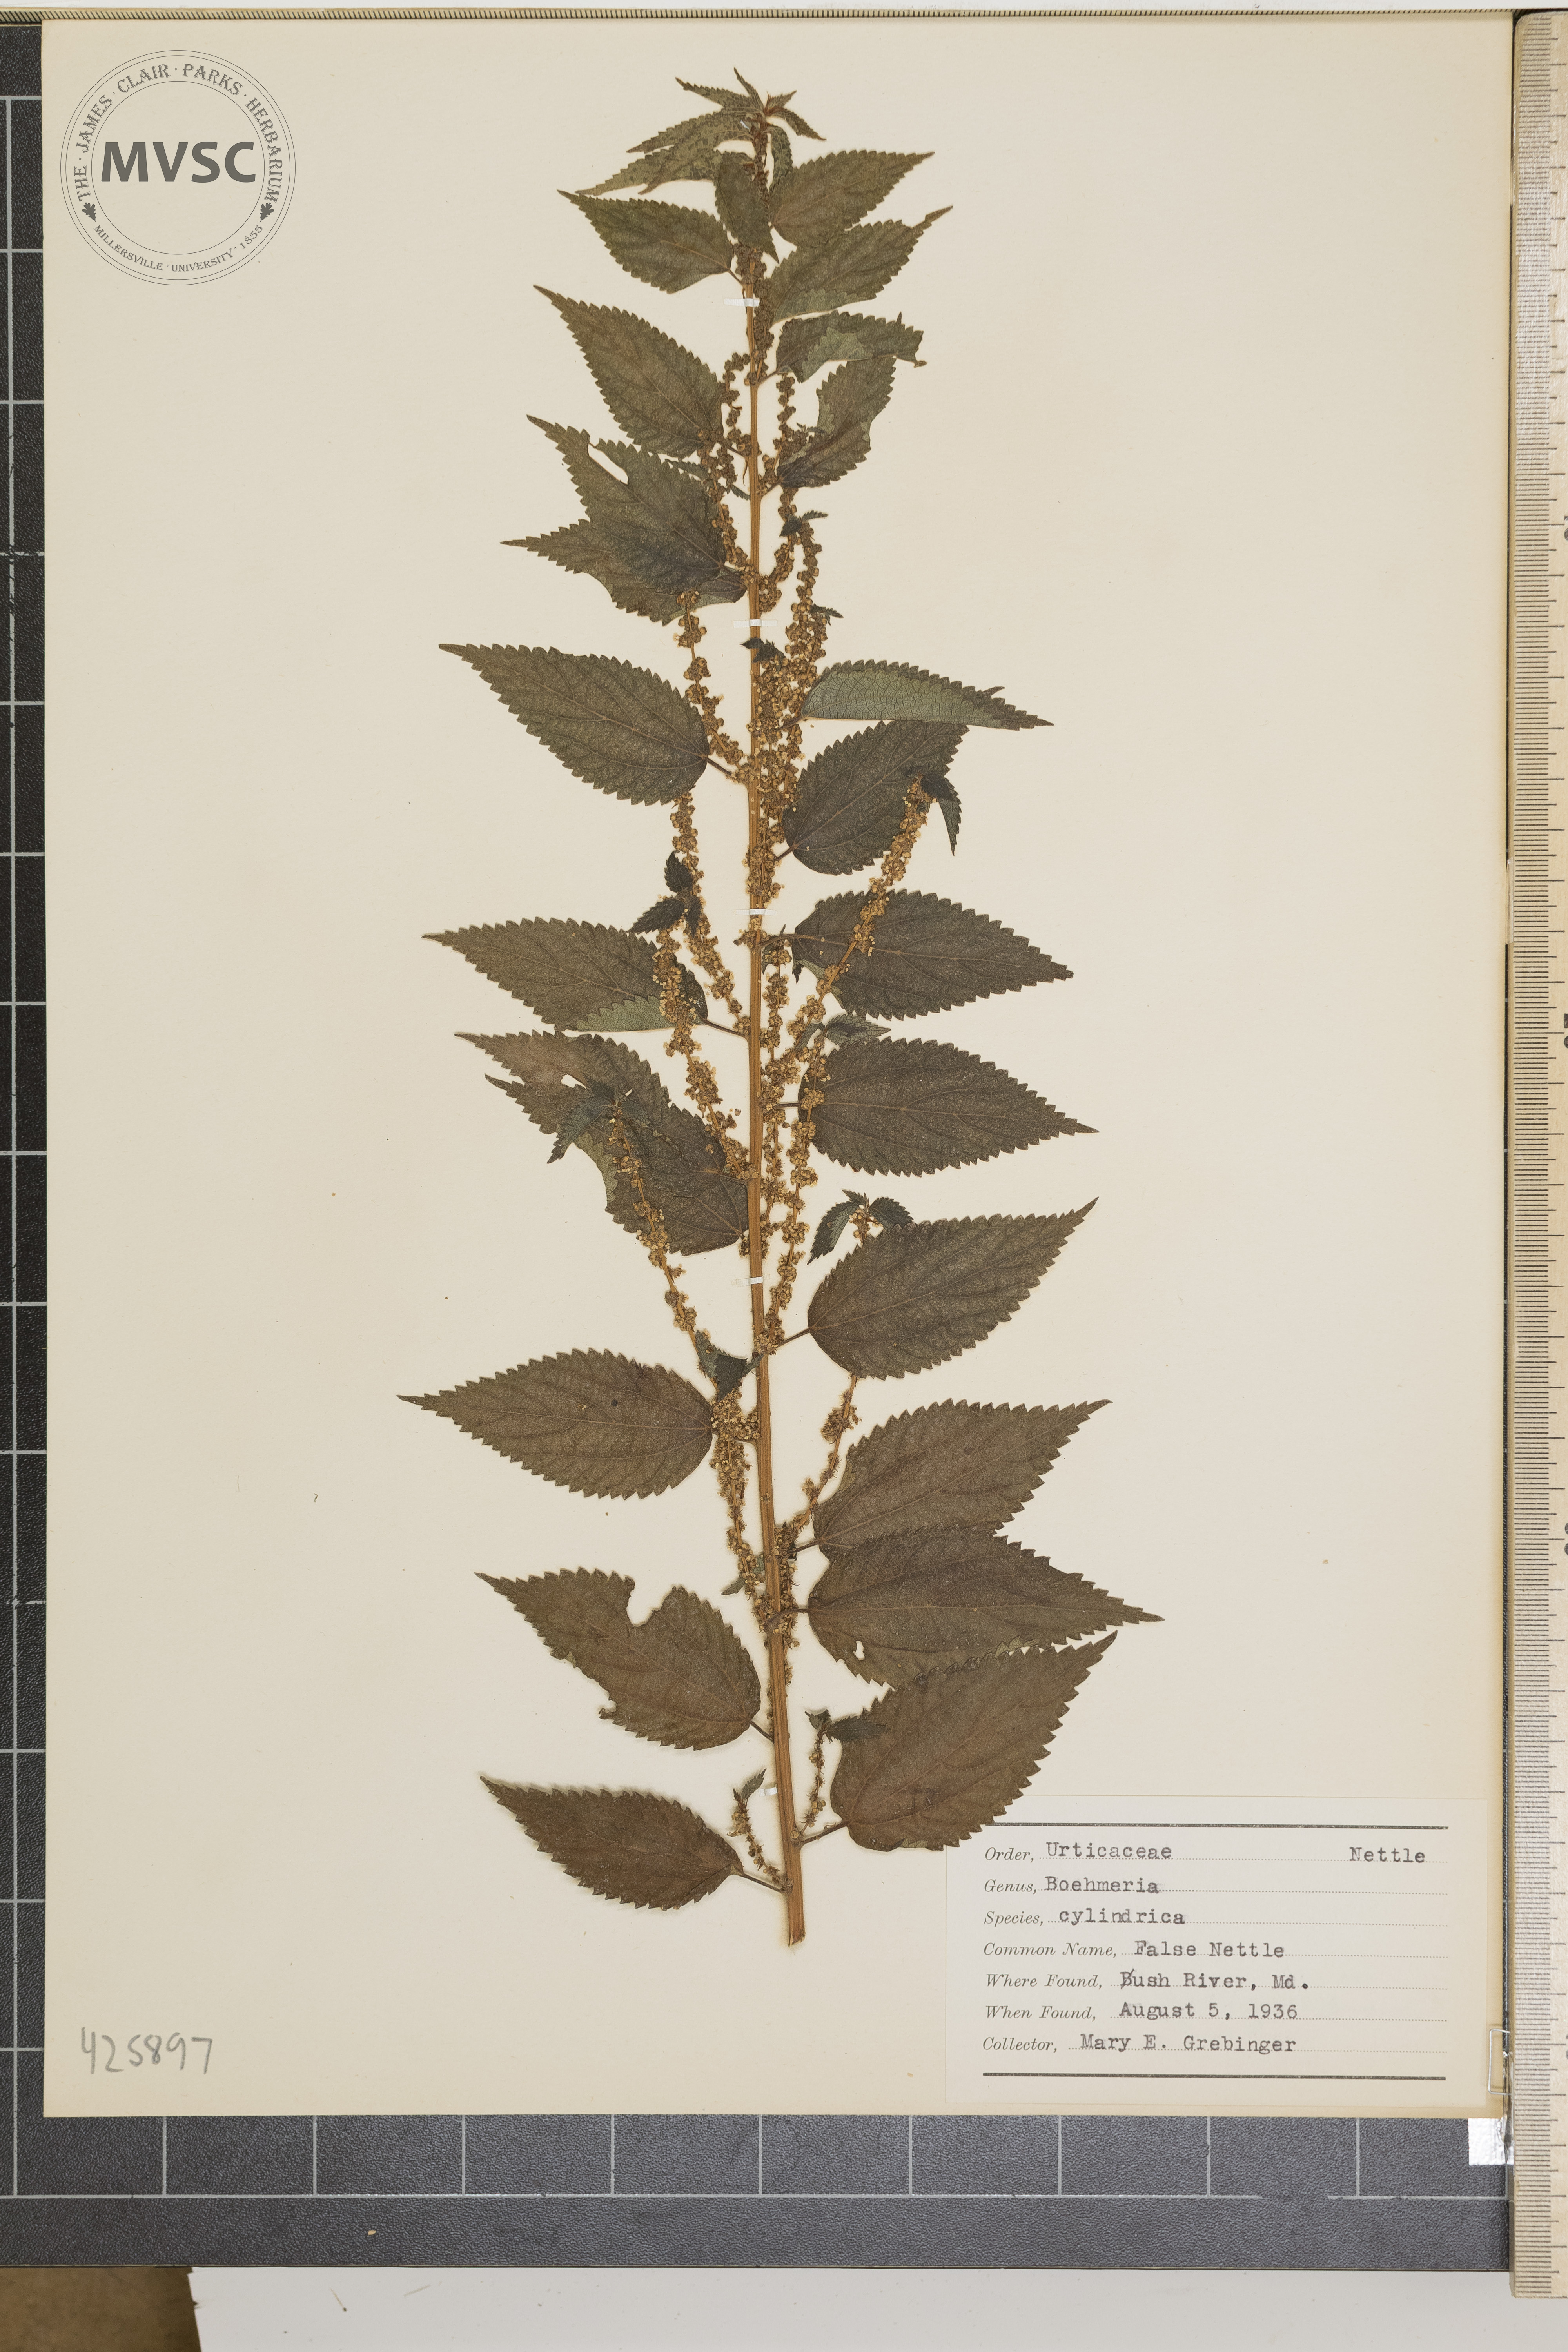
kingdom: Plantae
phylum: Tracheophyta
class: Magnoliopsida
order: Rosales
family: Urticaceae
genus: Boehmeria
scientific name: Boehmeria cylindrica
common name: False nettle
